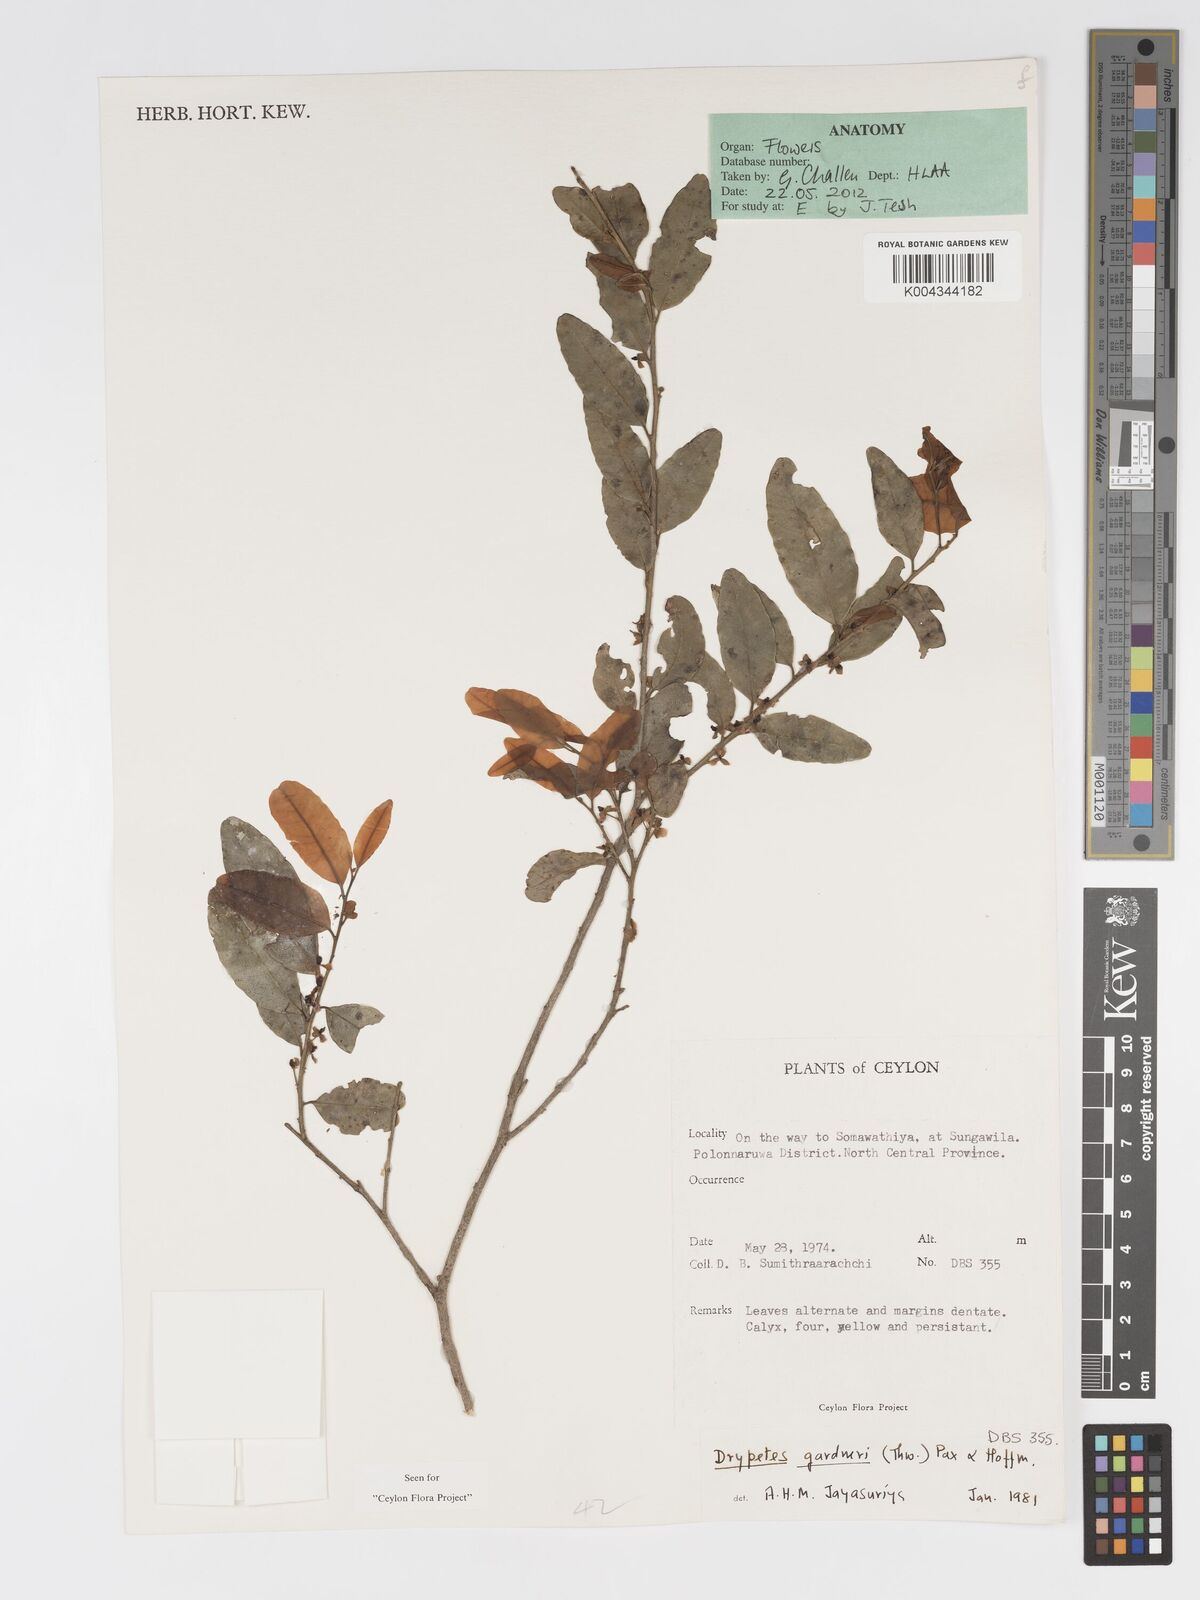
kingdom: Plantae
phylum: Tracheophyta
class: Magnoliopsida
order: Malpighiales
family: Putranjivaceae
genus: Drypetes
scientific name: Drypetes gardneri
